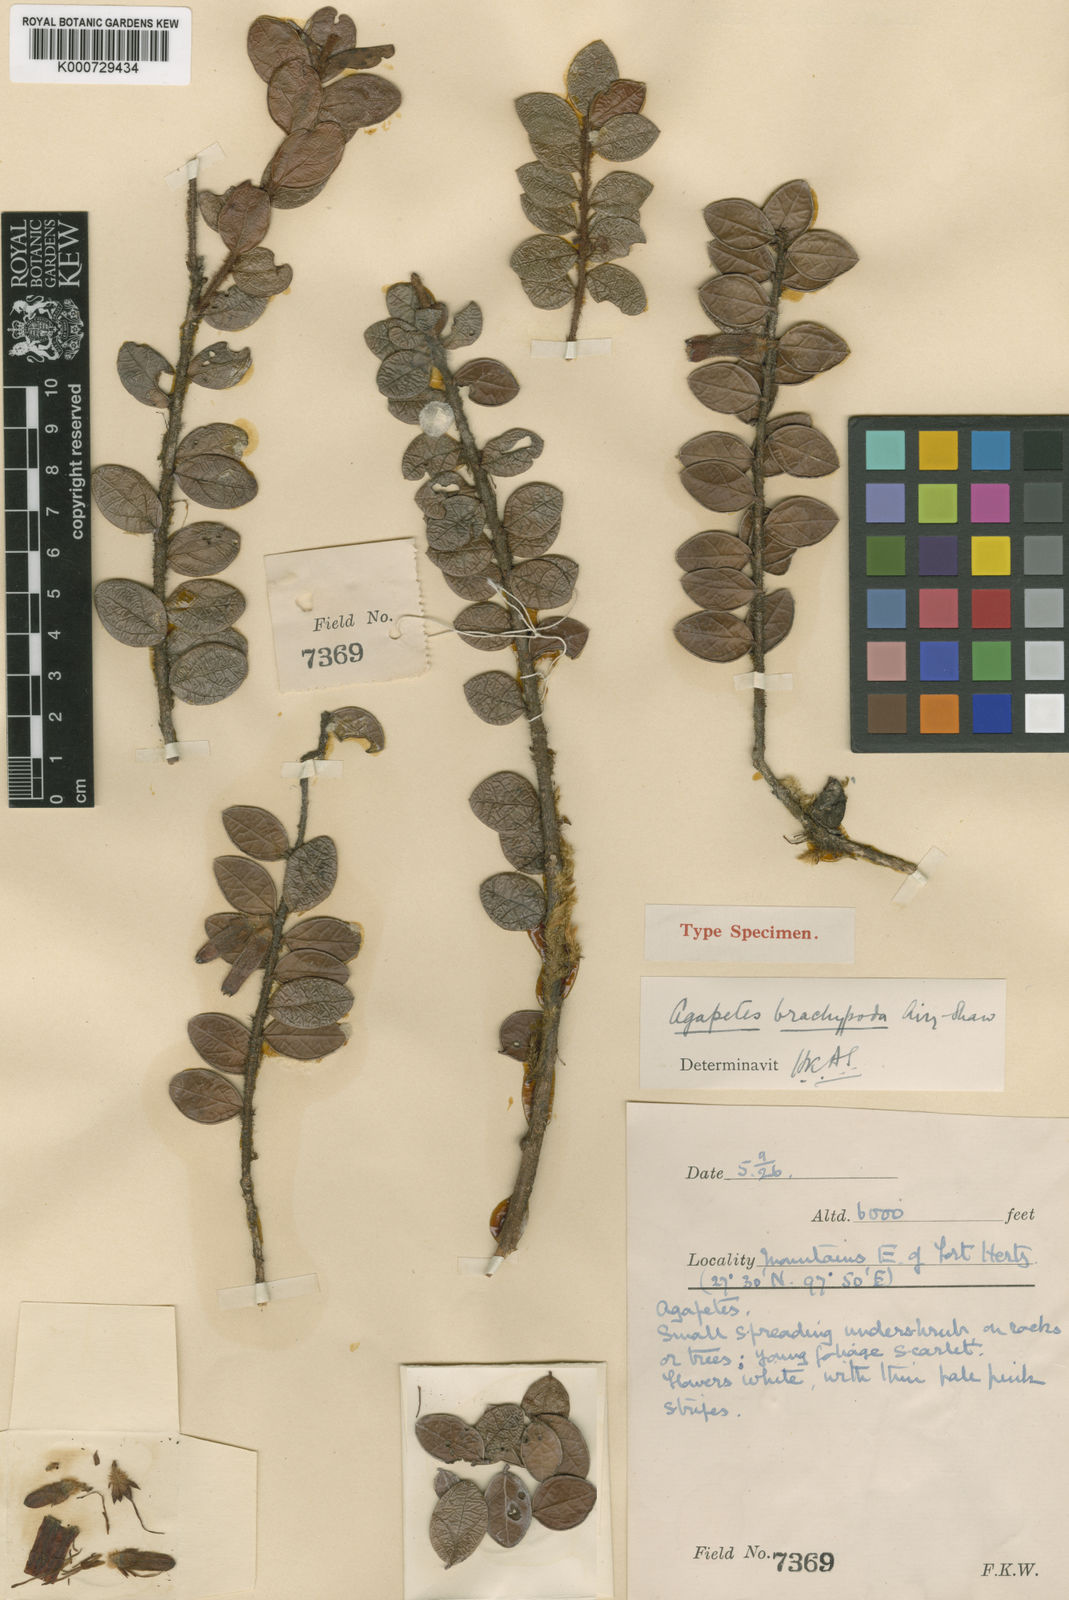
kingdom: Plantae
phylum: Tracheophyta
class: Magnoliopsida
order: Ericales
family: Ericaceae
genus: Agapetes
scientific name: Agapetes brachypoda
